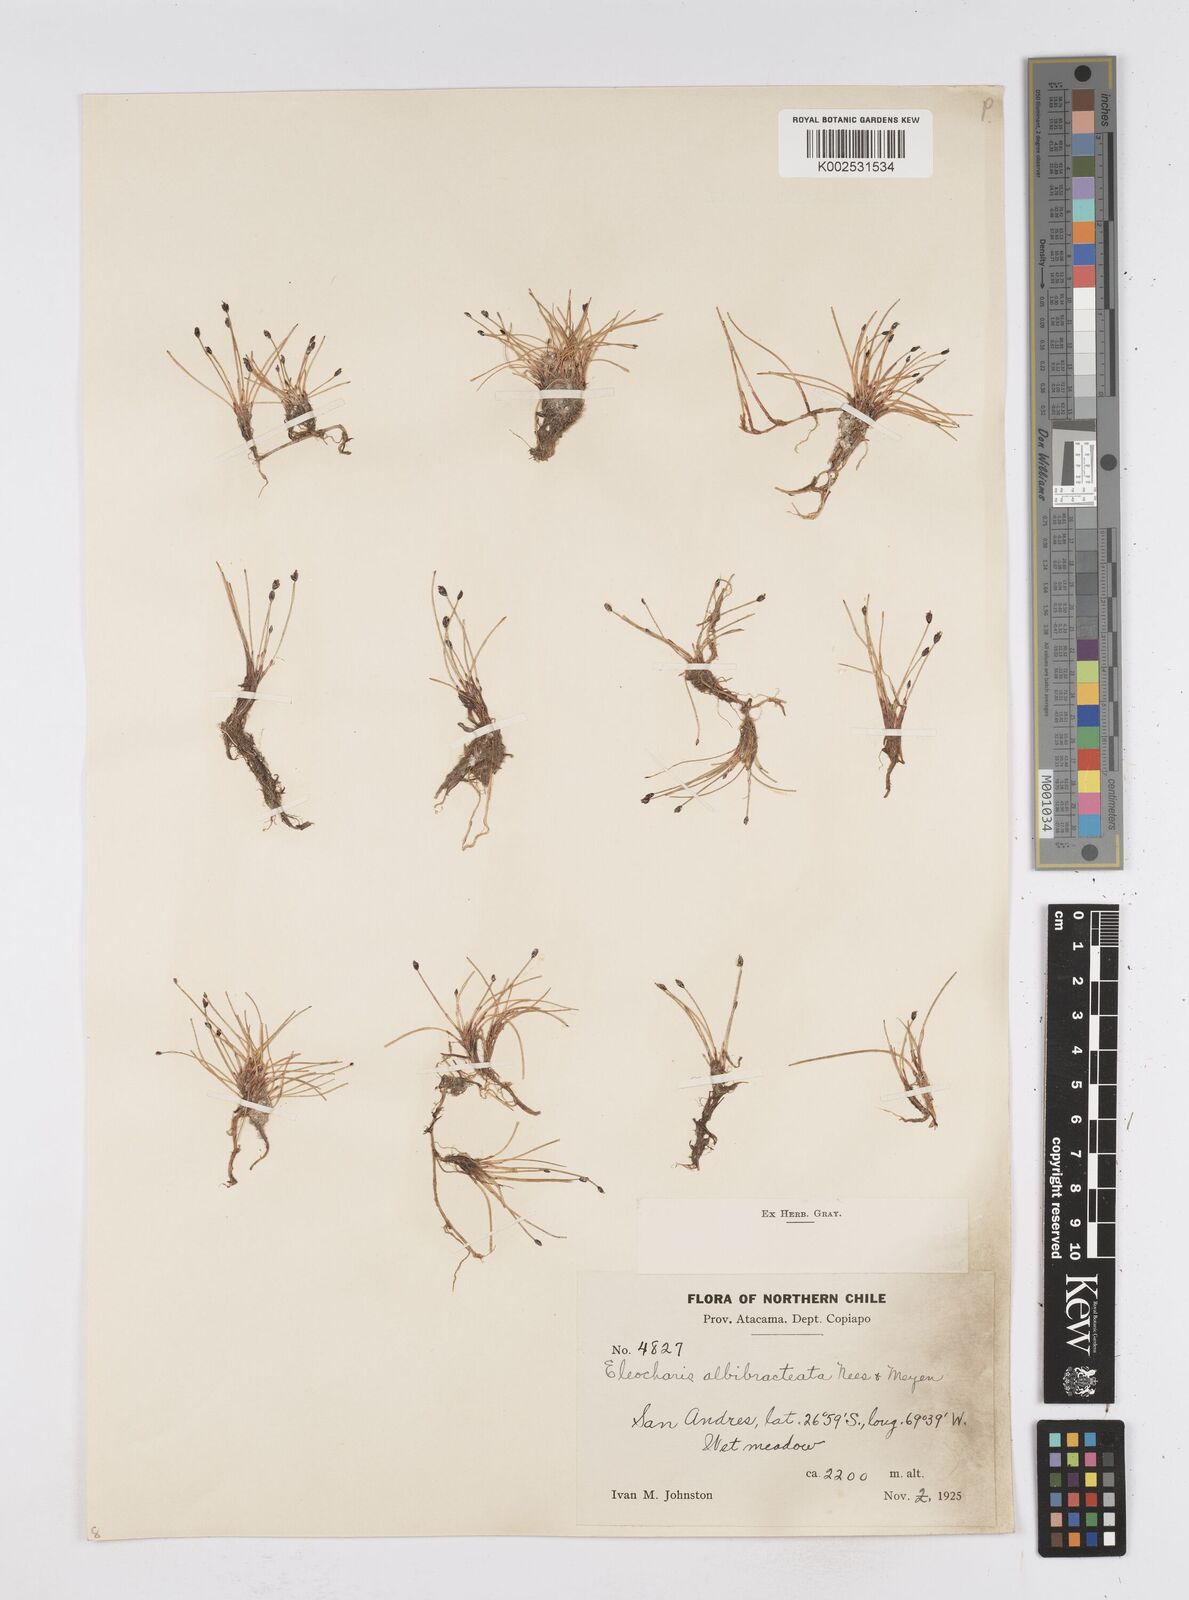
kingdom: Plantae
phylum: Tracheophyta
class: Liliopsida
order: Poales
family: Cyperaceae
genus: Eleocharis
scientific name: Eleocharis albibracteata
